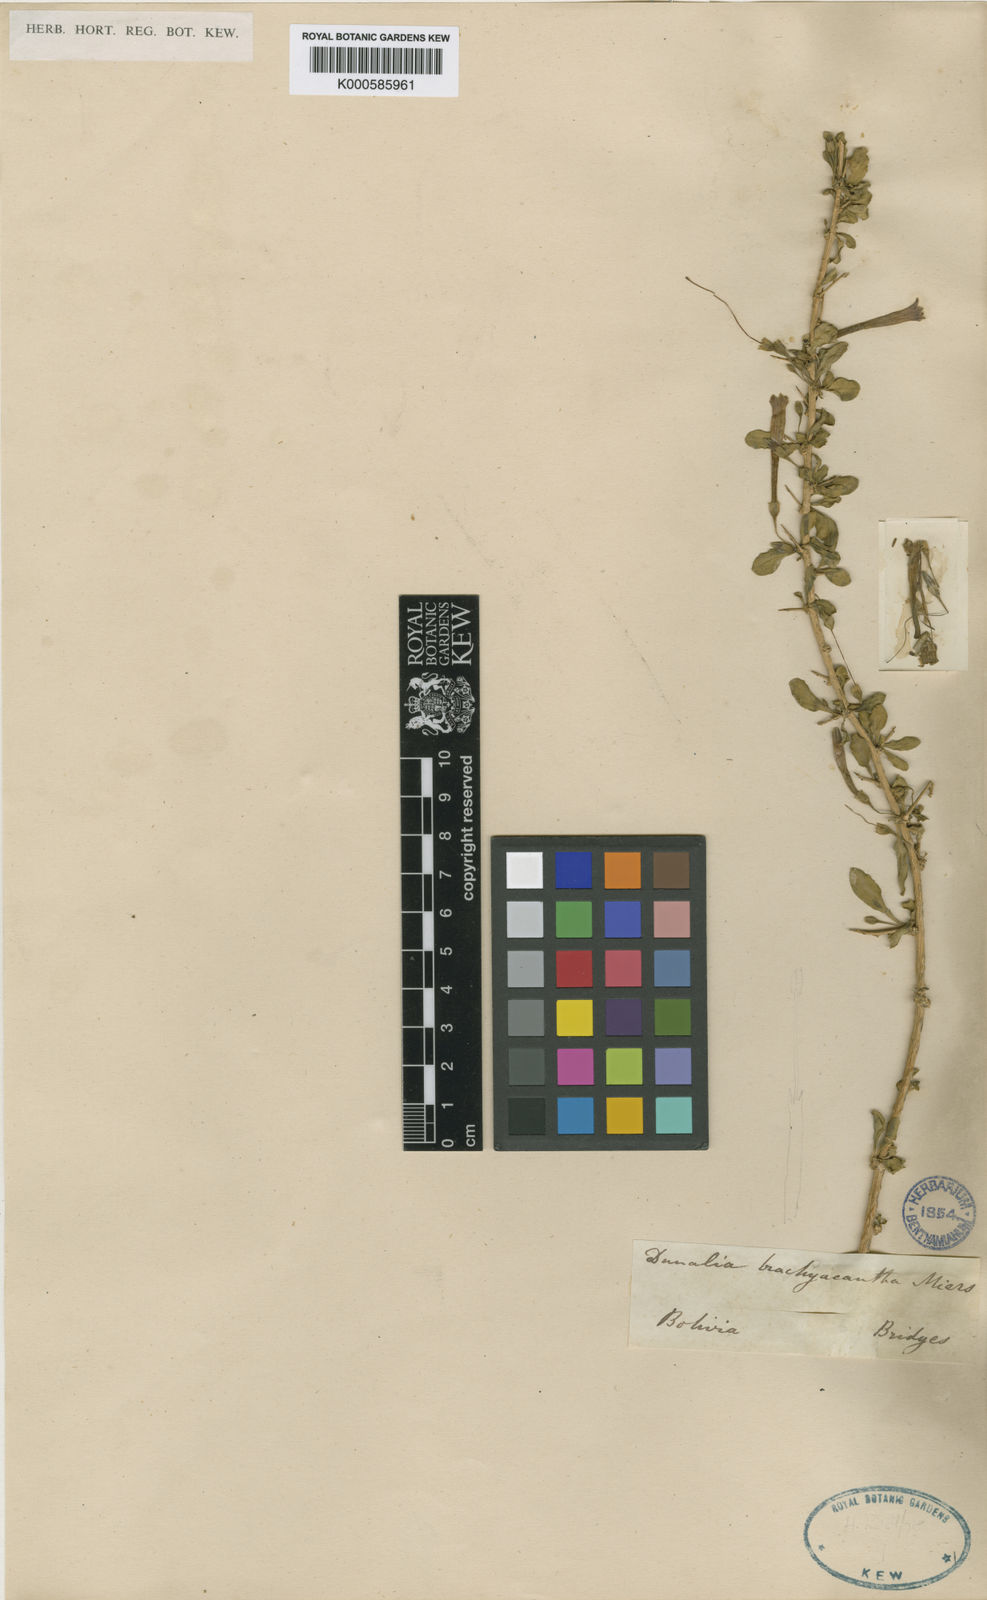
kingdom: Plantae
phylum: Tracheophyta
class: Magnoliopsida
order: Solanales
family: Solanaceae
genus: Dunalia
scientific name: Dunalia brachyacantha
